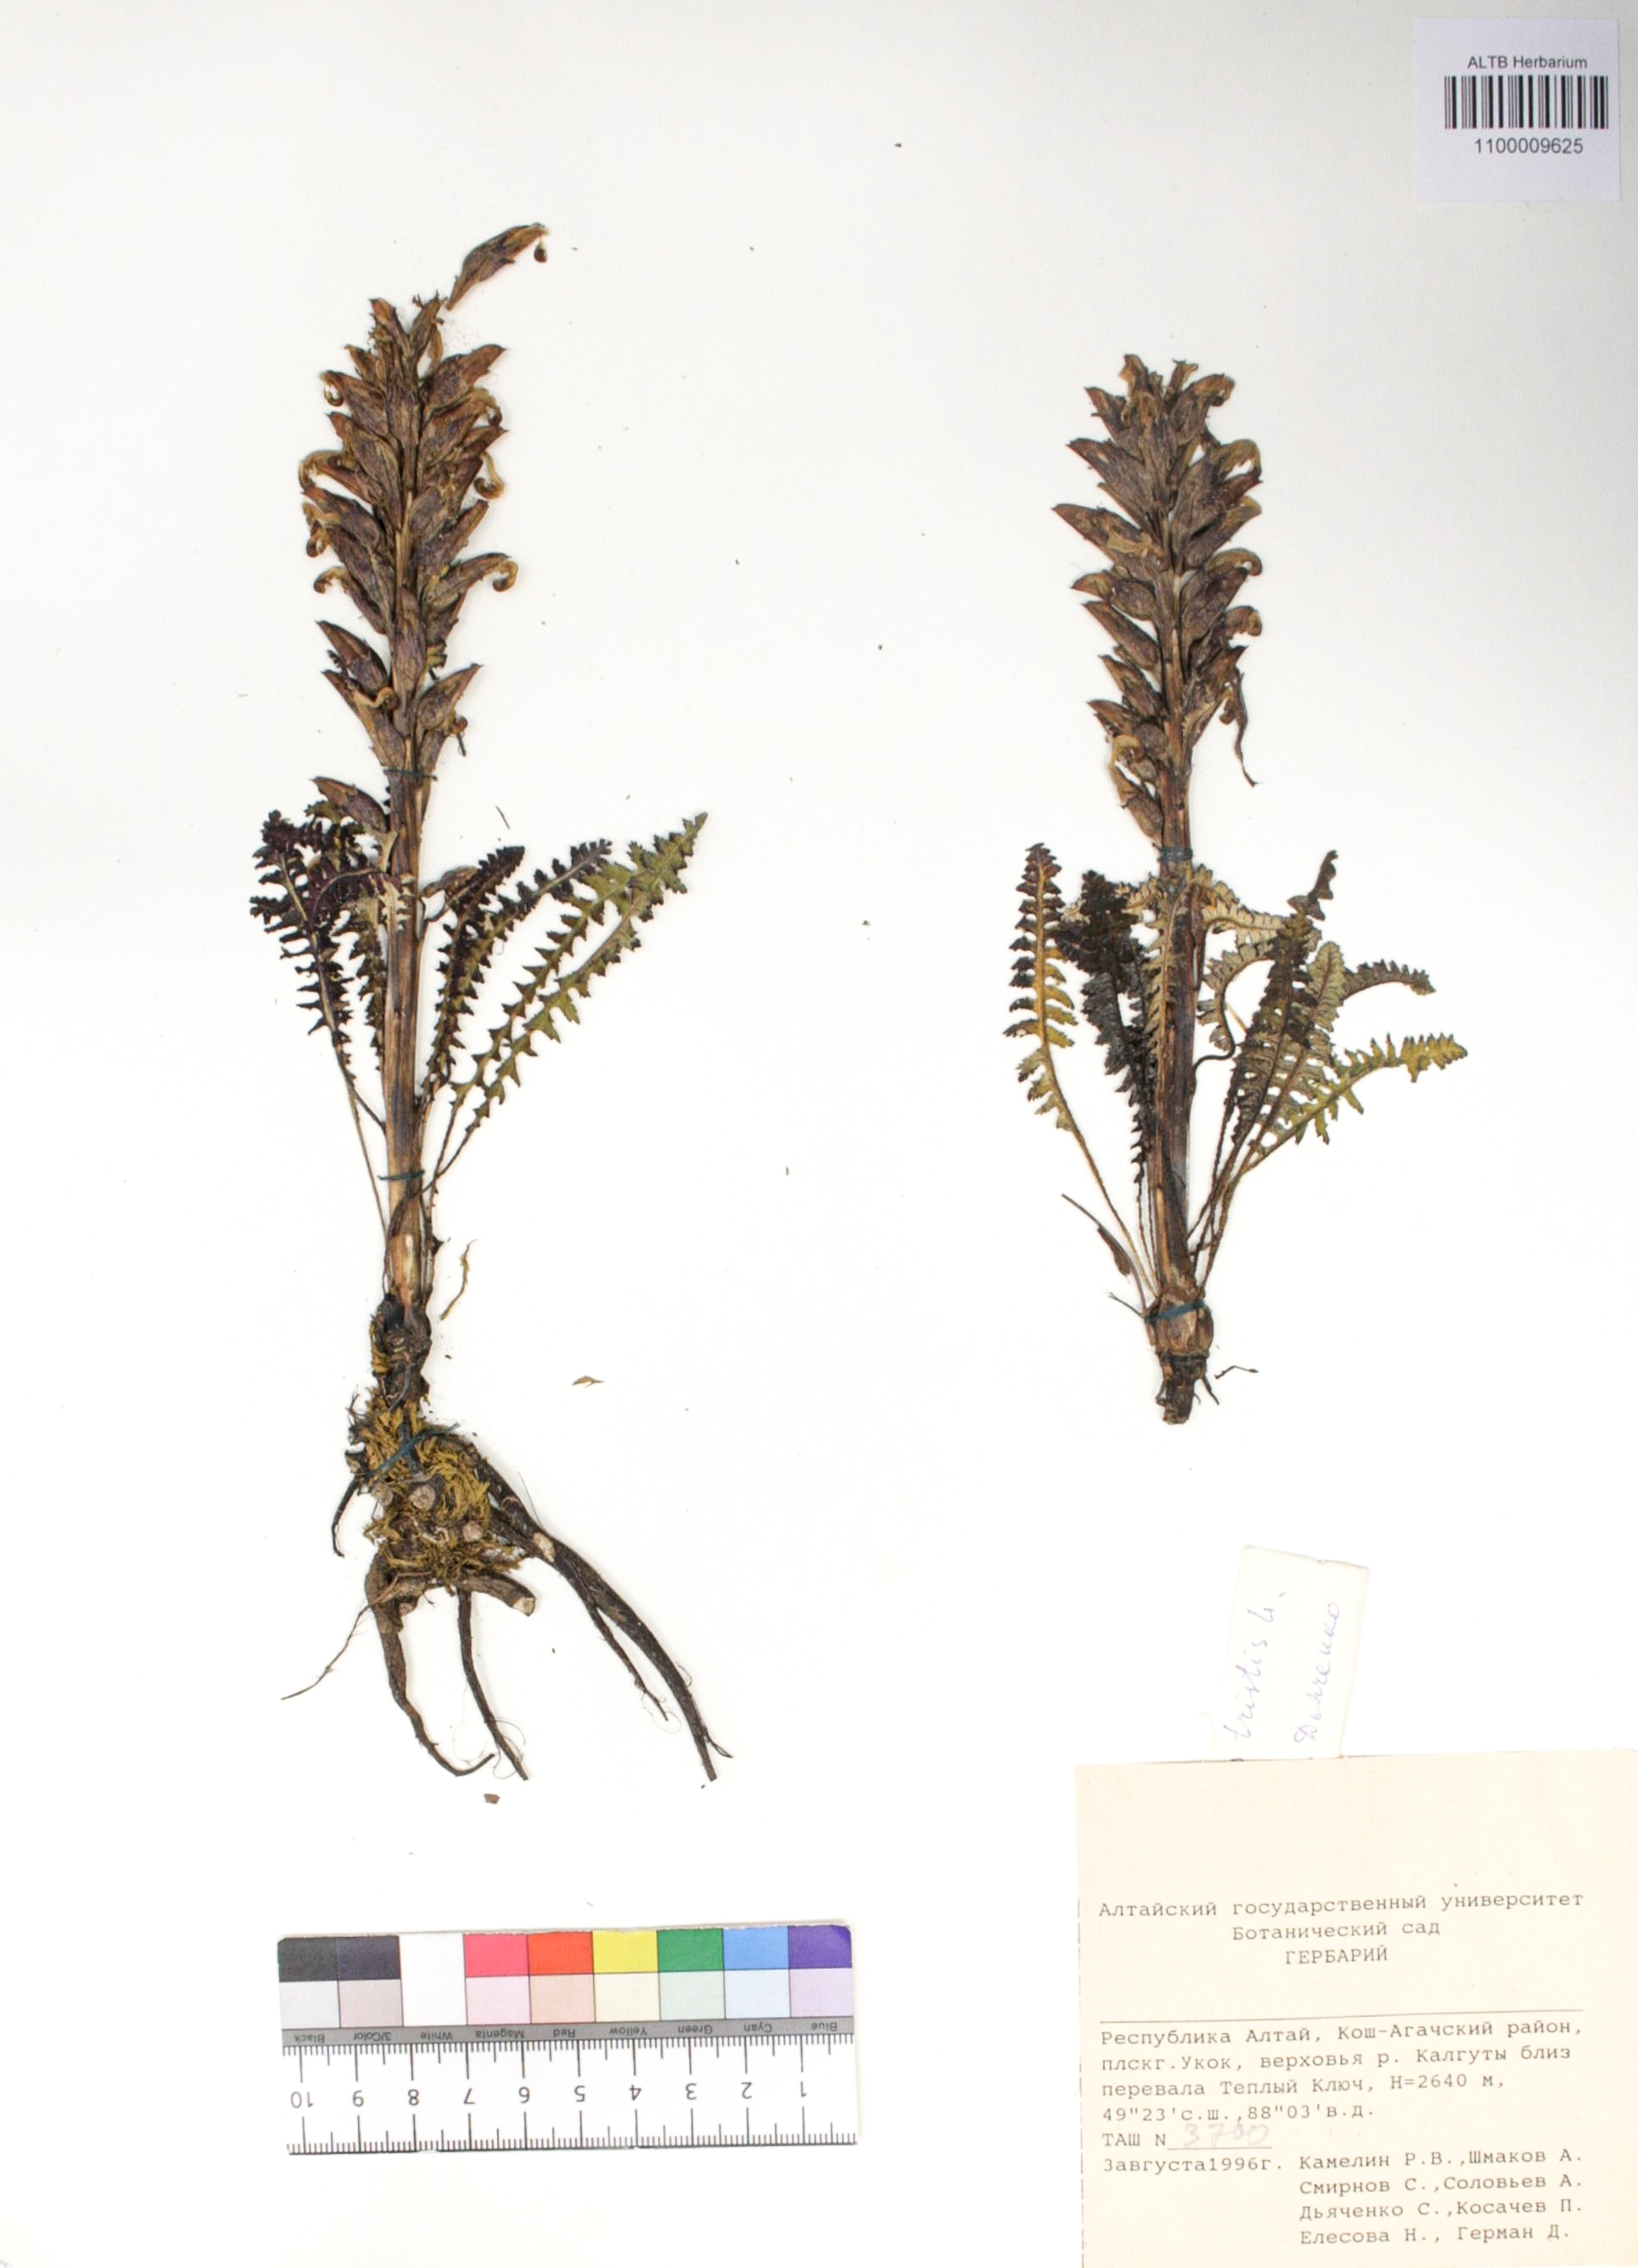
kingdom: Plantae
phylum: Tracheophyta
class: Magnoliopsida
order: Lamiales
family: Orobanchaceae
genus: Pedicularis
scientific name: Pedicularis tristis
